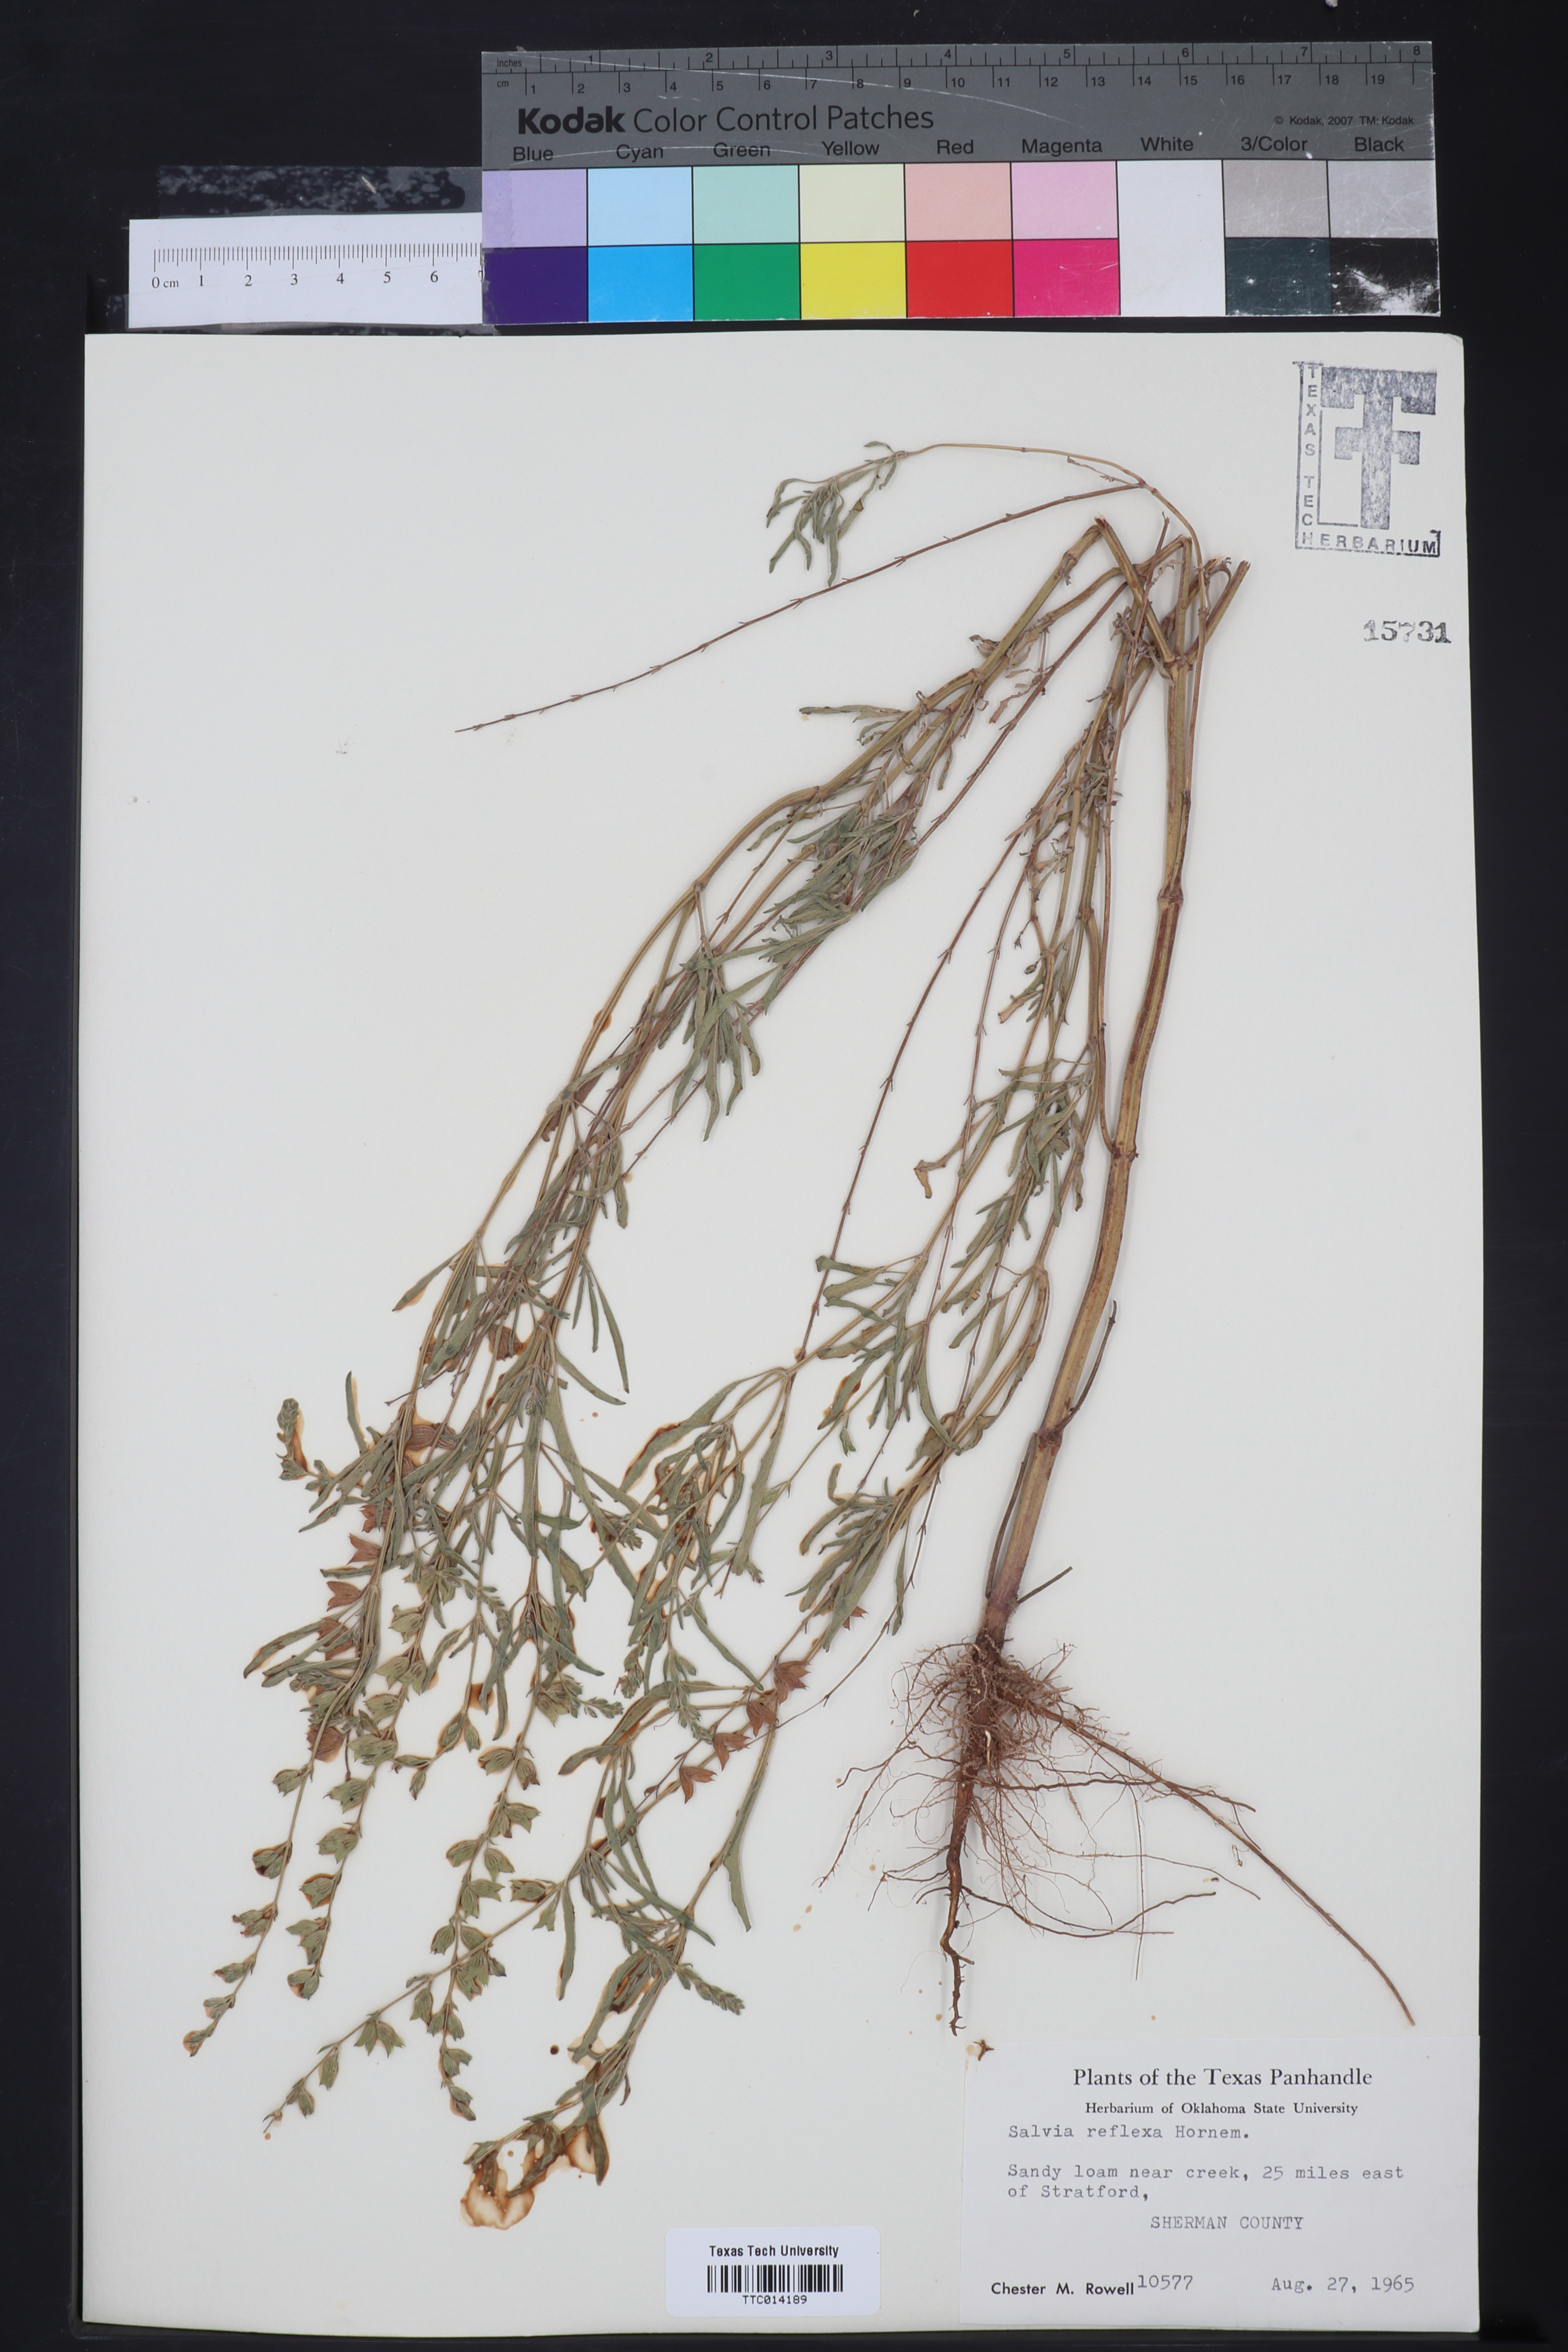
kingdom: Plantae
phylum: Tracheophyta
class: Magnoliopsida
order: Lamiales
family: Lamiaceae
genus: Salvia
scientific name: Salvia reflexa
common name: Mintweed
